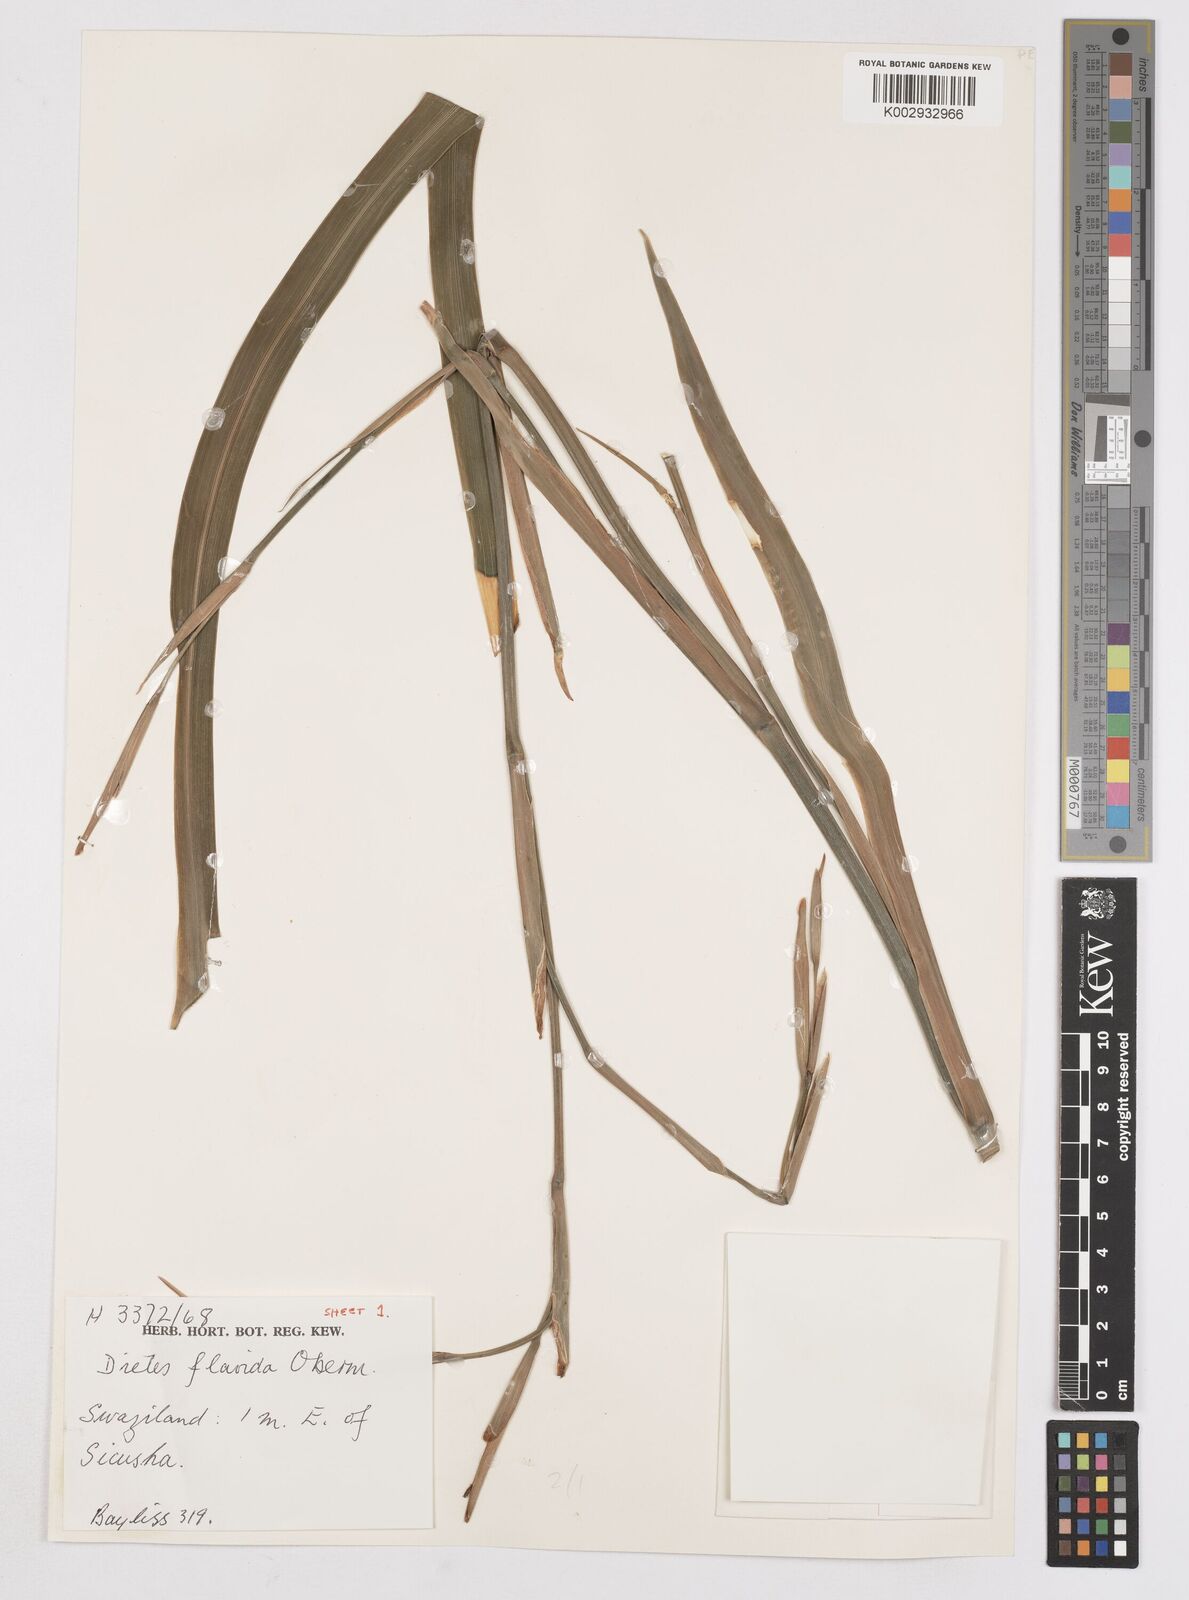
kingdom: Plantae
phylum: Tracheophyta
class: Liliopsida
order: Asparagales
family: Iridaceae
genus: Dietes
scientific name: Dietes flavida
